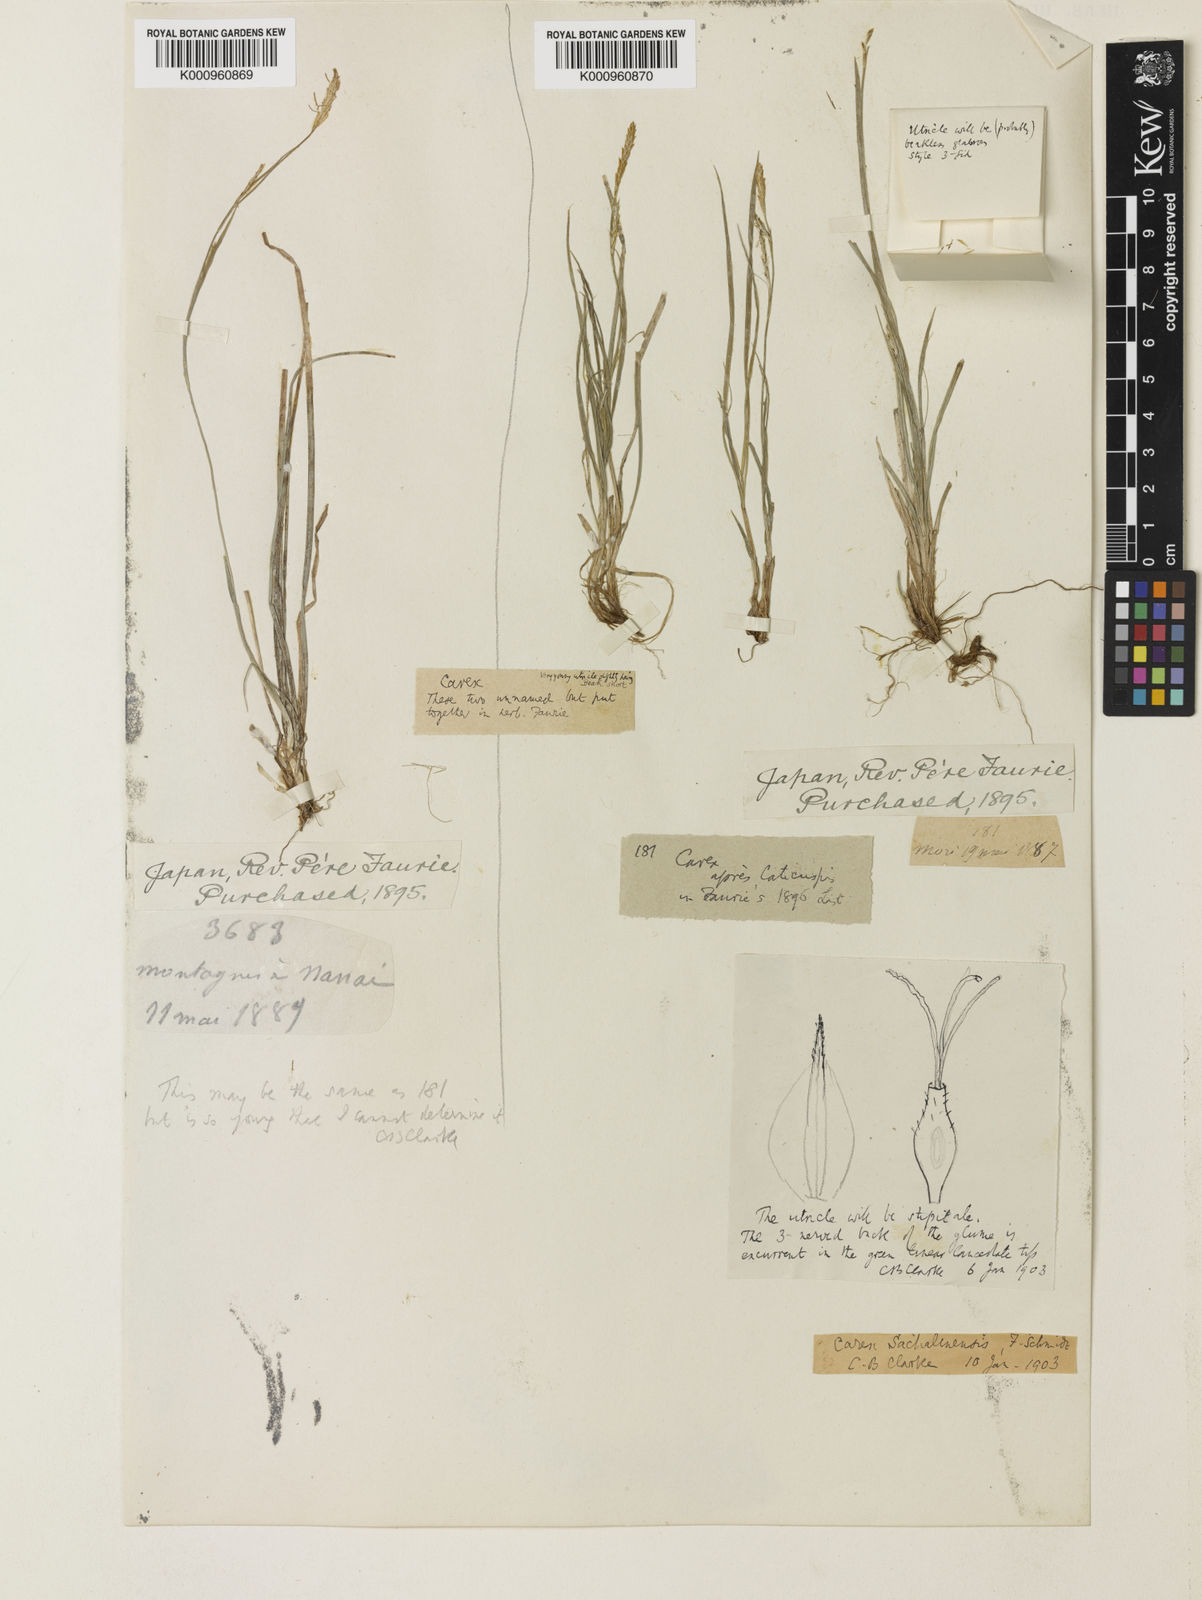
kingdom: Plantae
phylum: Tracheophyta
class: Liliopsida
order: Poales
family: Cyperaceae
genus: Carex
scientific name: Carex pisiformis
